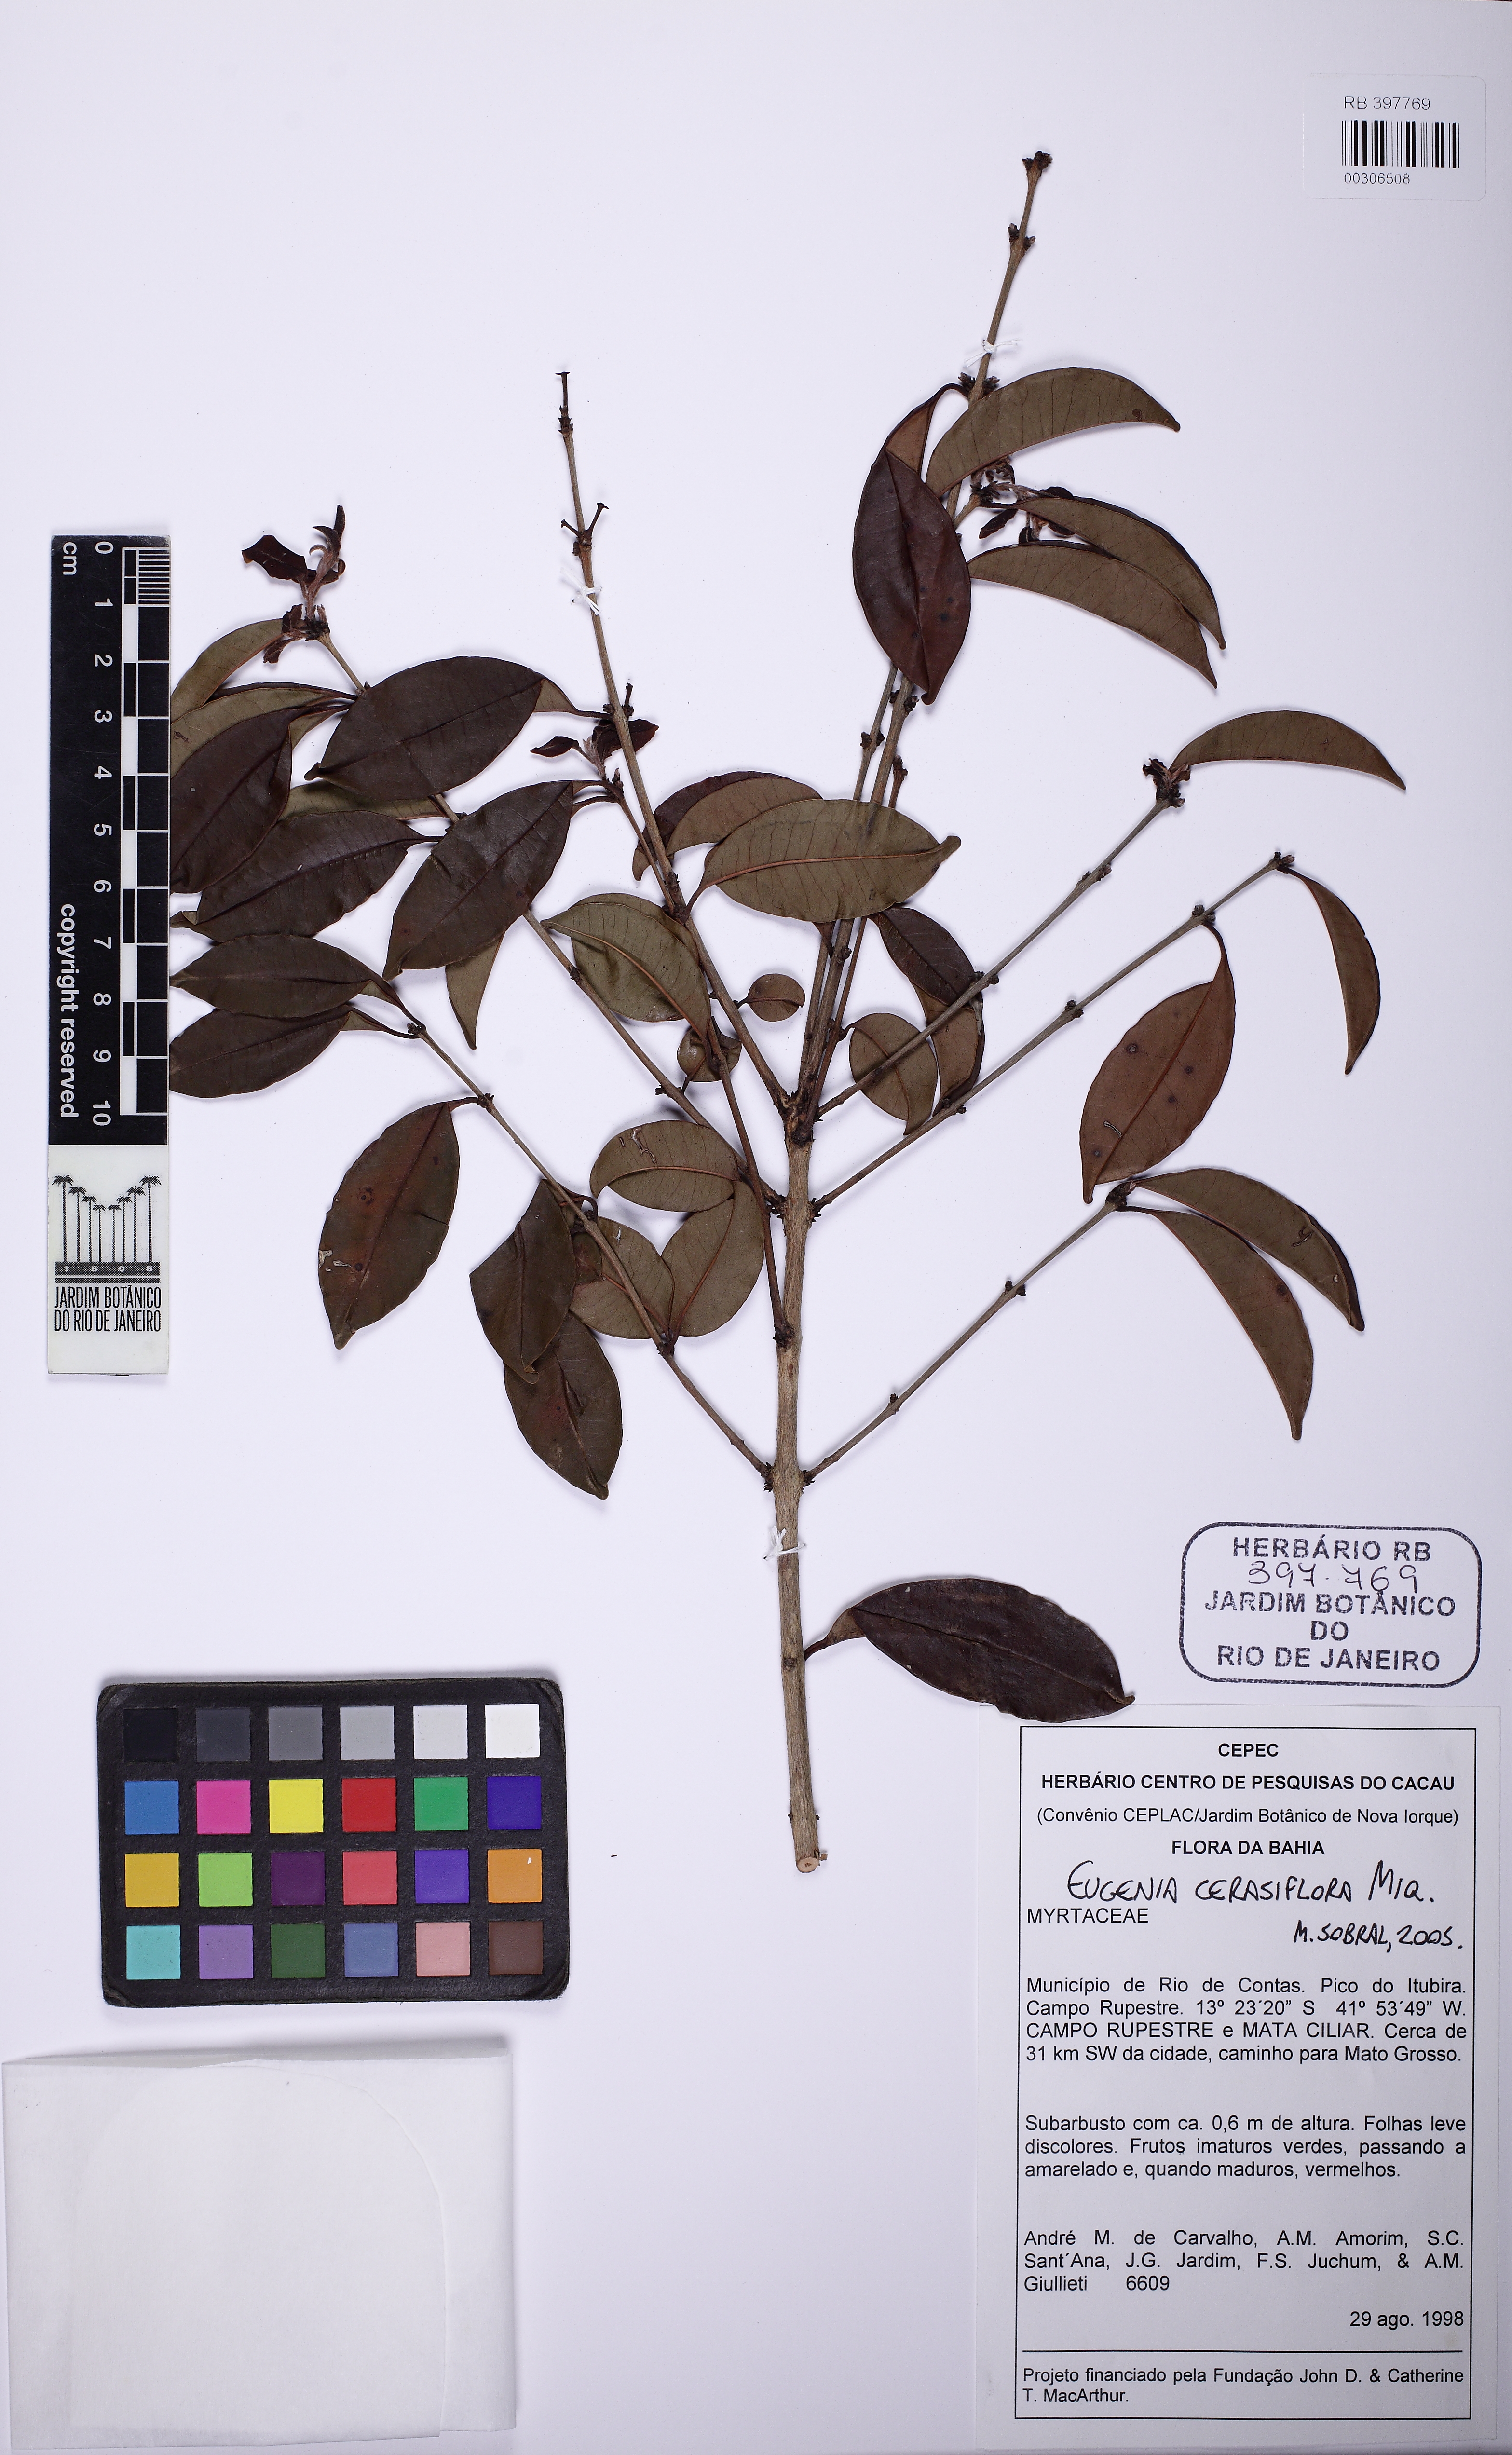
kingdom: Plantae
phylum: Tracheophyta
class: Magnoliopsida
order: Myrtales
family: Myrtaceae
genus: Eugenia
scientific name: Eugenia cerasiflora
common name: Cherry-of-the-rio-grande
